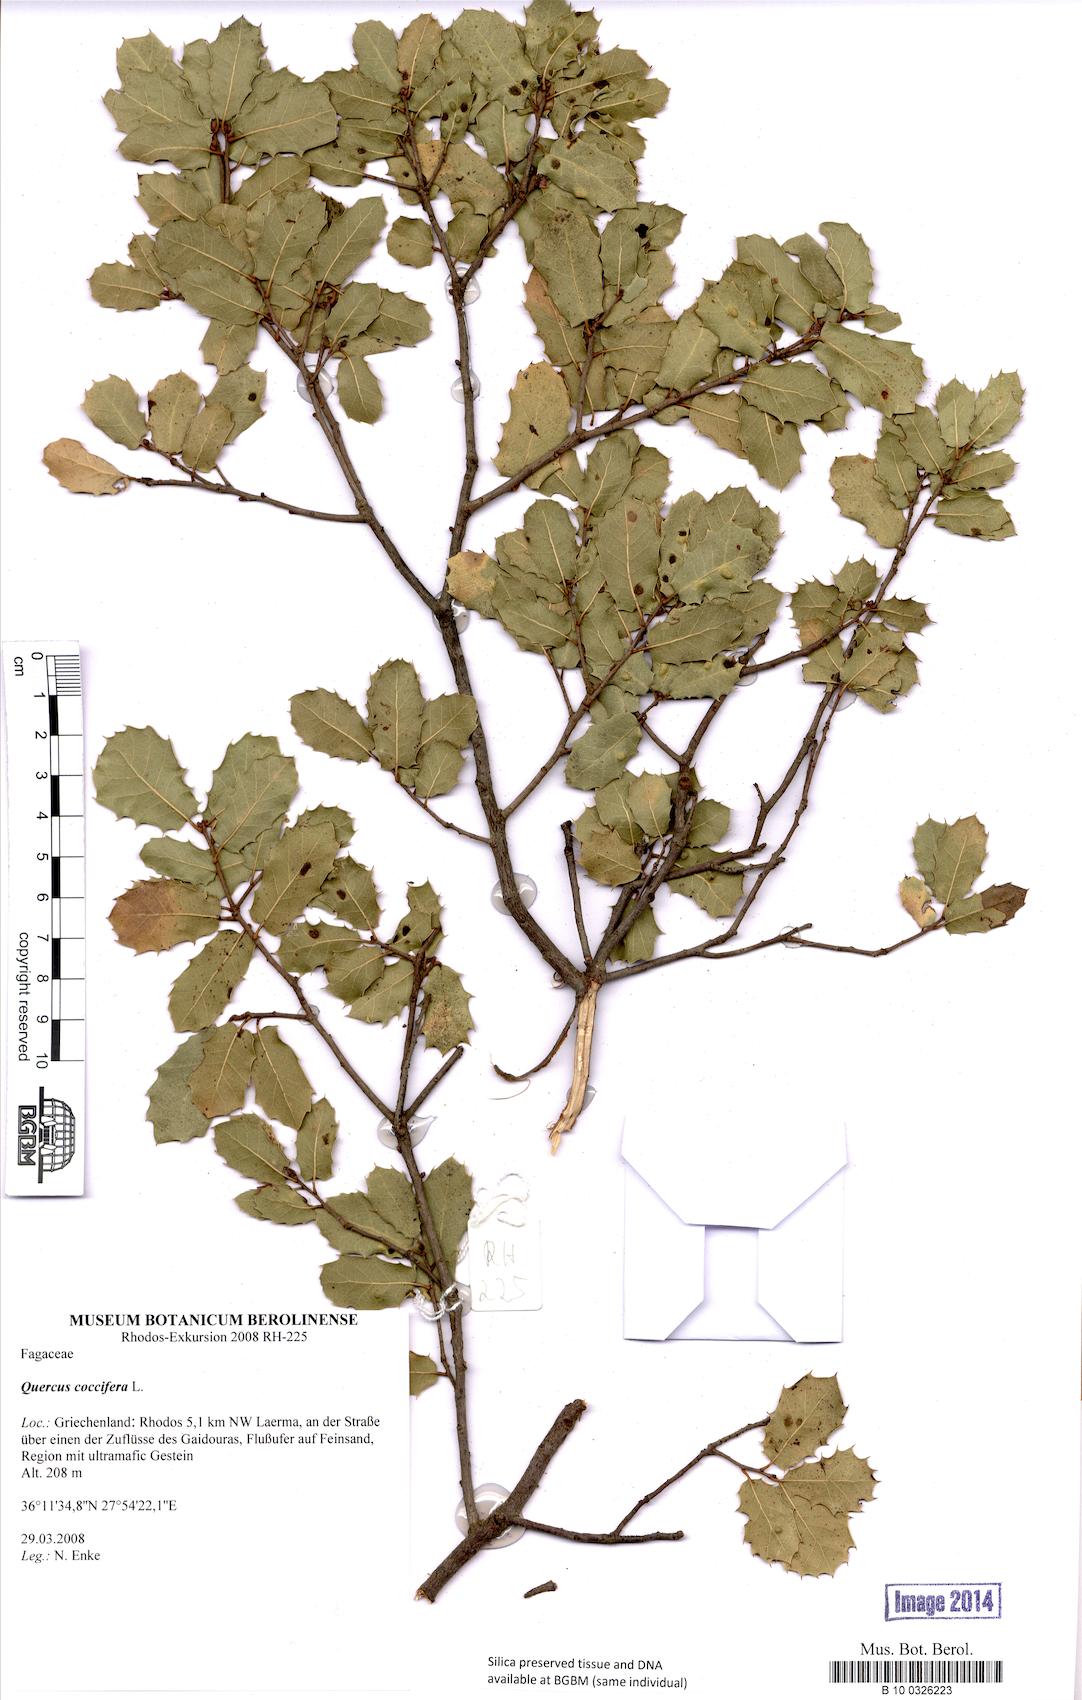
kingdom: Plantae
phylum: Tracheophyta
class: Magnoliopsida
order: Fagales
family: Fagaceae
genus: Quercus
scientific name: Quercus coccifera
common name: Kermes oak
